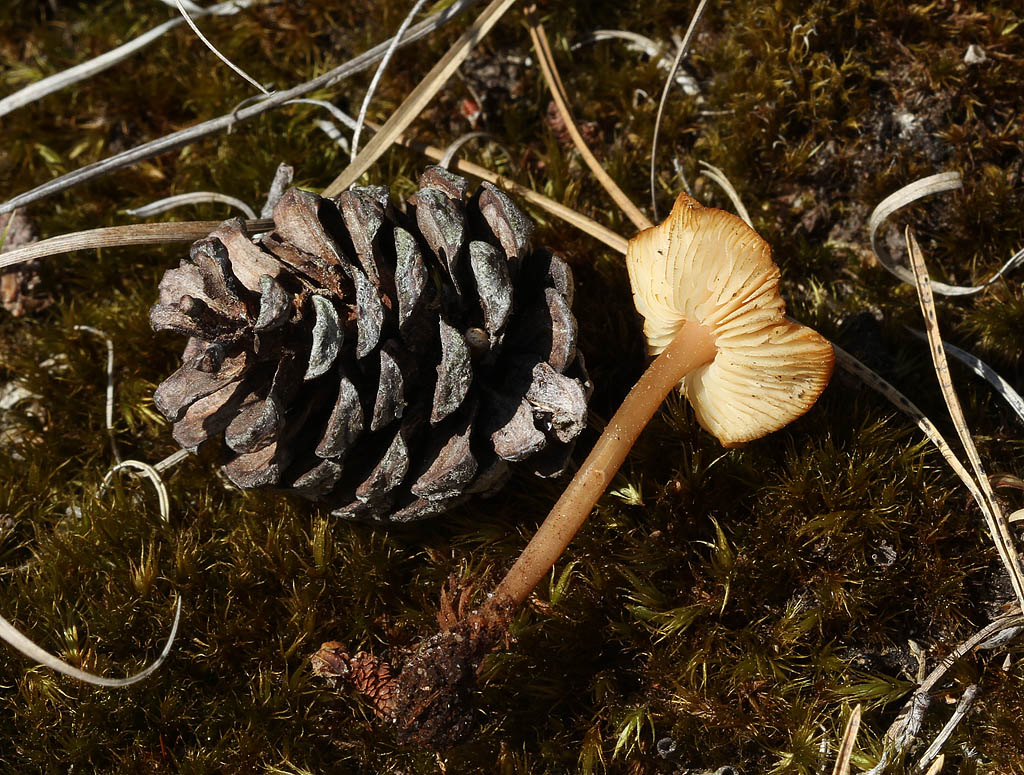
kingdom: Fungi
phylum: Basidiomycota
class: Agaricomycetes
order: Agaricales
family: Marasmiaceae
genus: Baeospora
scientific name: Baeospora myosura
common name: koglebruskhat
